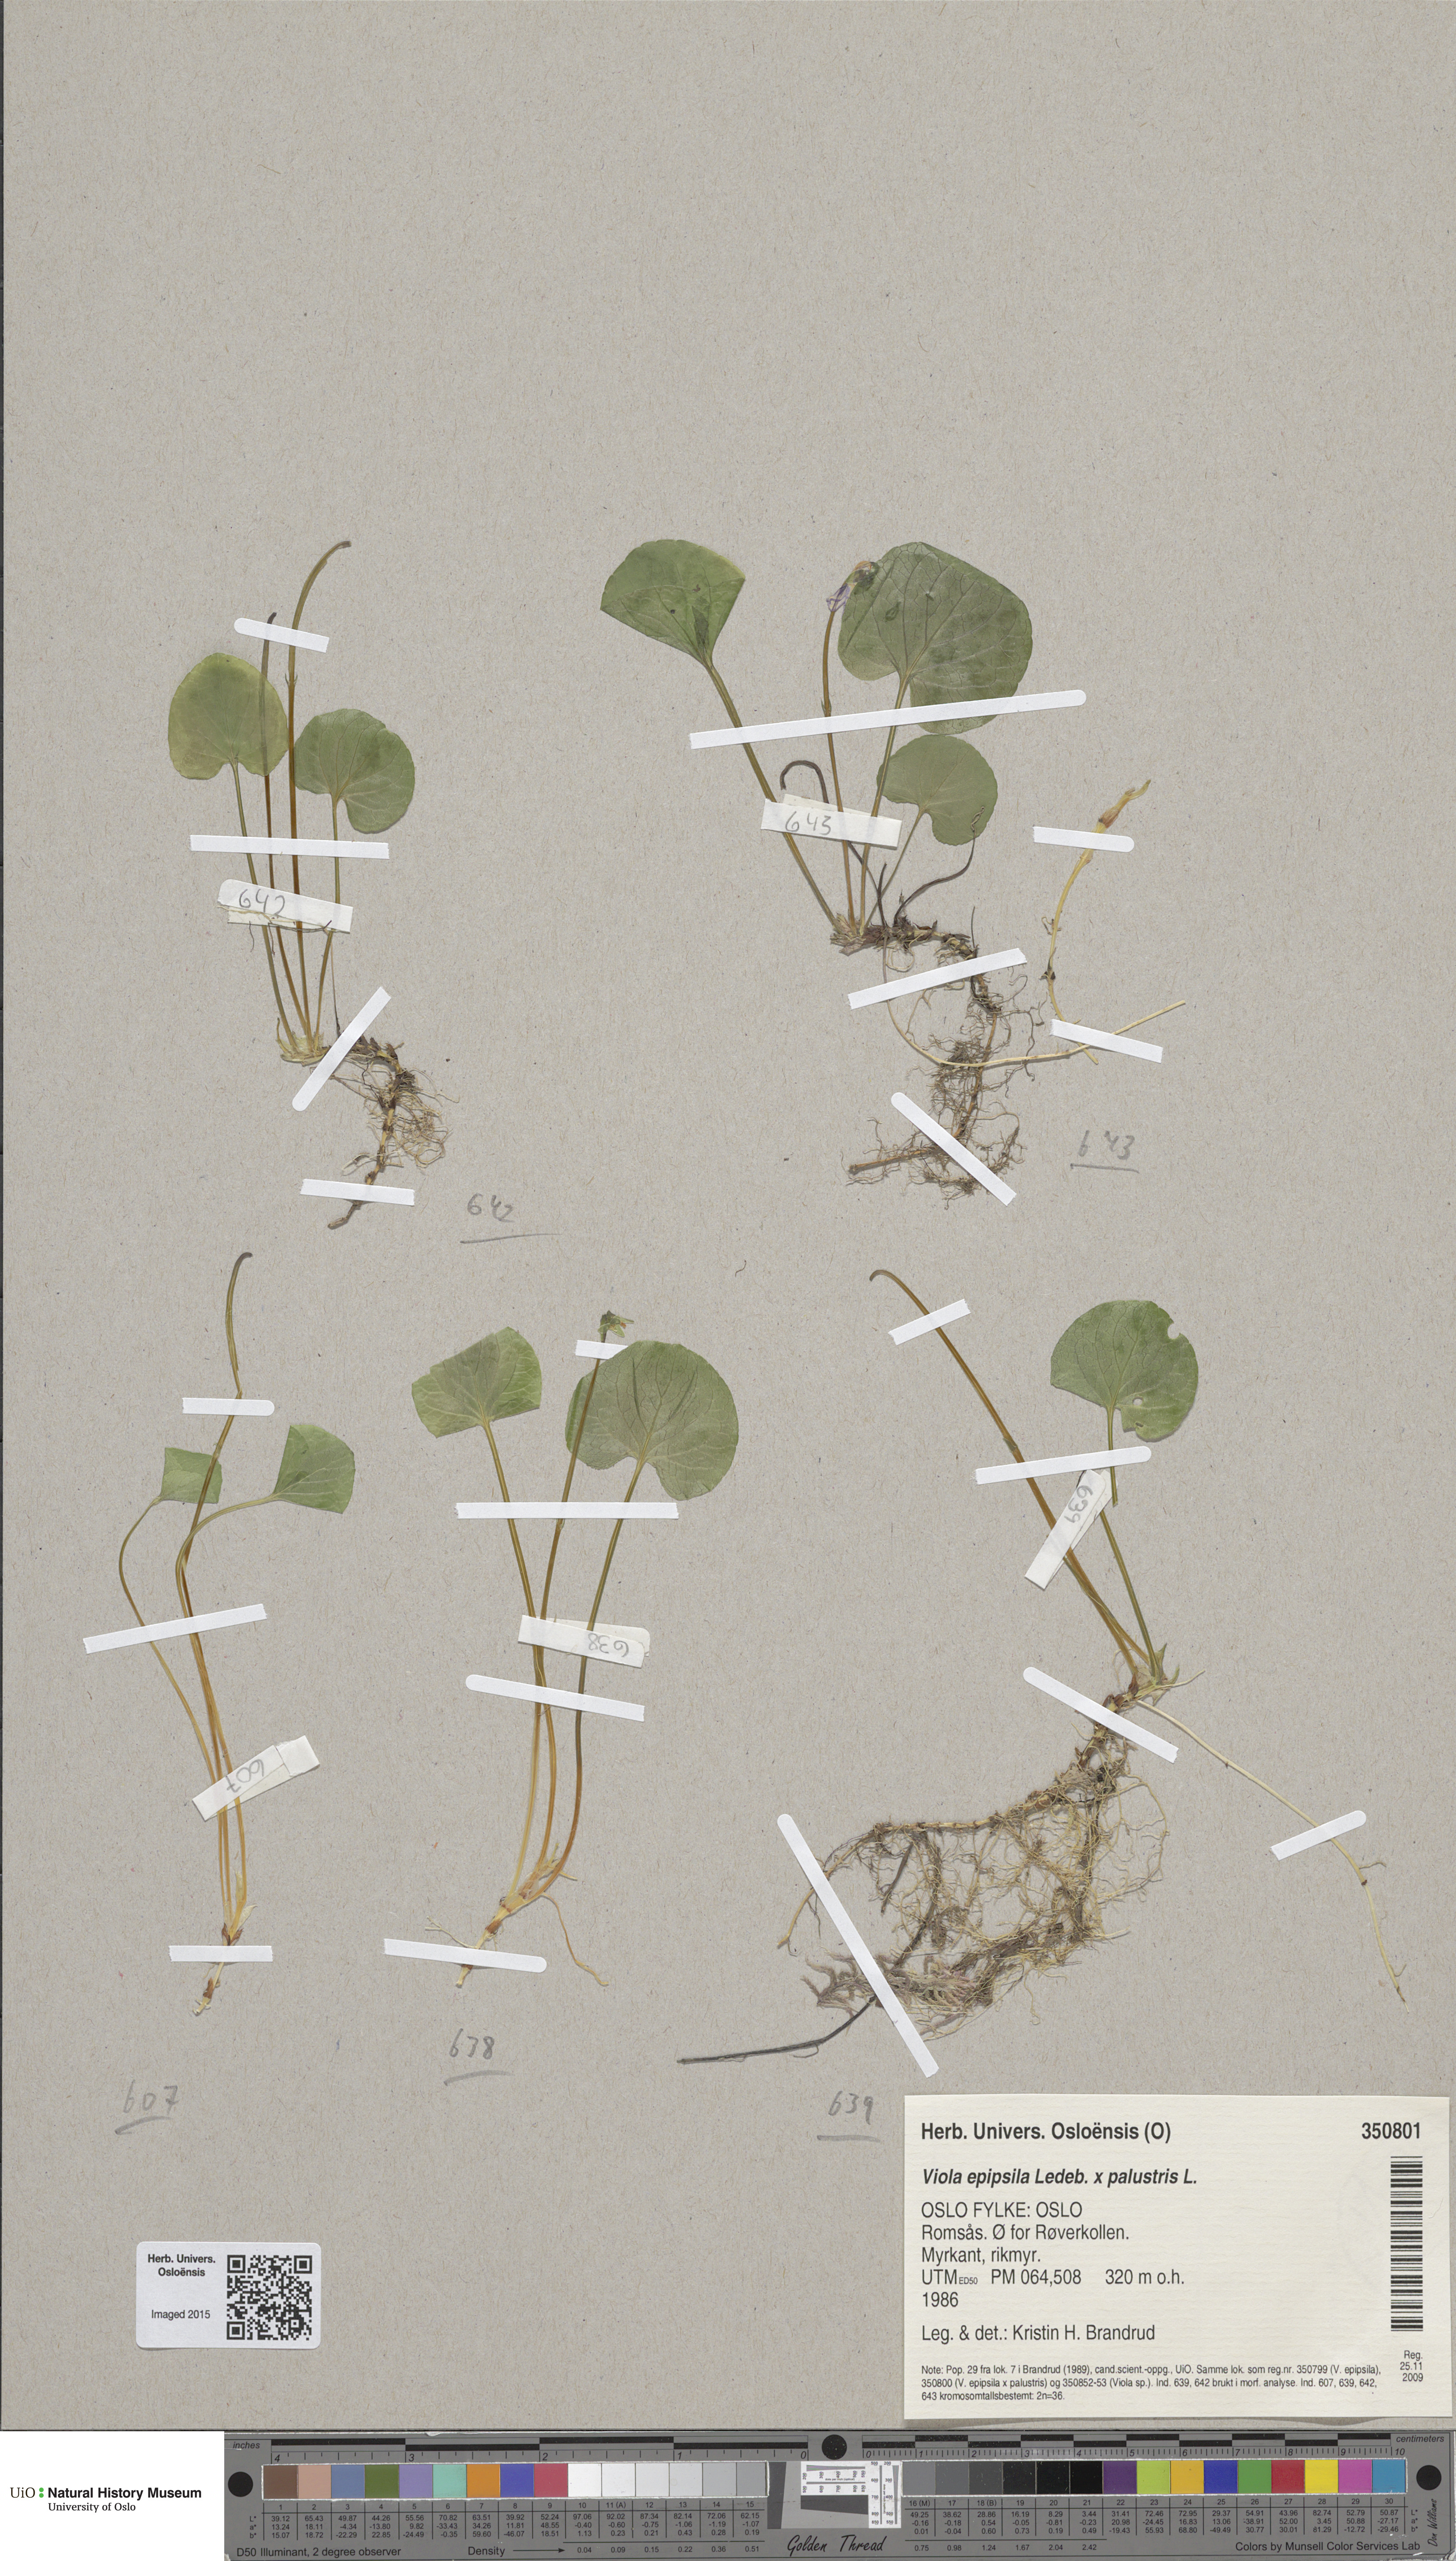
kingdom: Plantae
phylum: Tracheophyta
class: Magnoliopsida
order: Malpighiales
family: Violaceae
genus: Viola
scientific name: Viola
